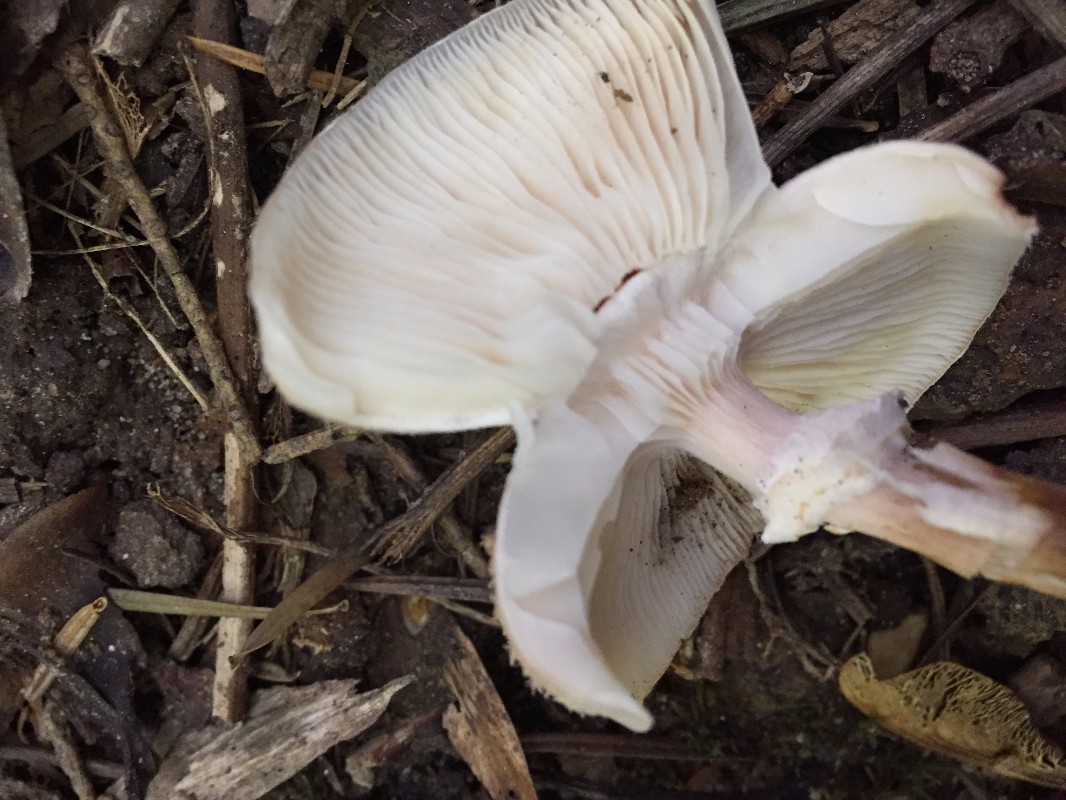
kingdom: Fungi
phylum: Basidiomycota
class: Agaricomycetes
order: Agaricales
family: Physalacriaceae
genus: Armillaria
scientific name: Armillaria
